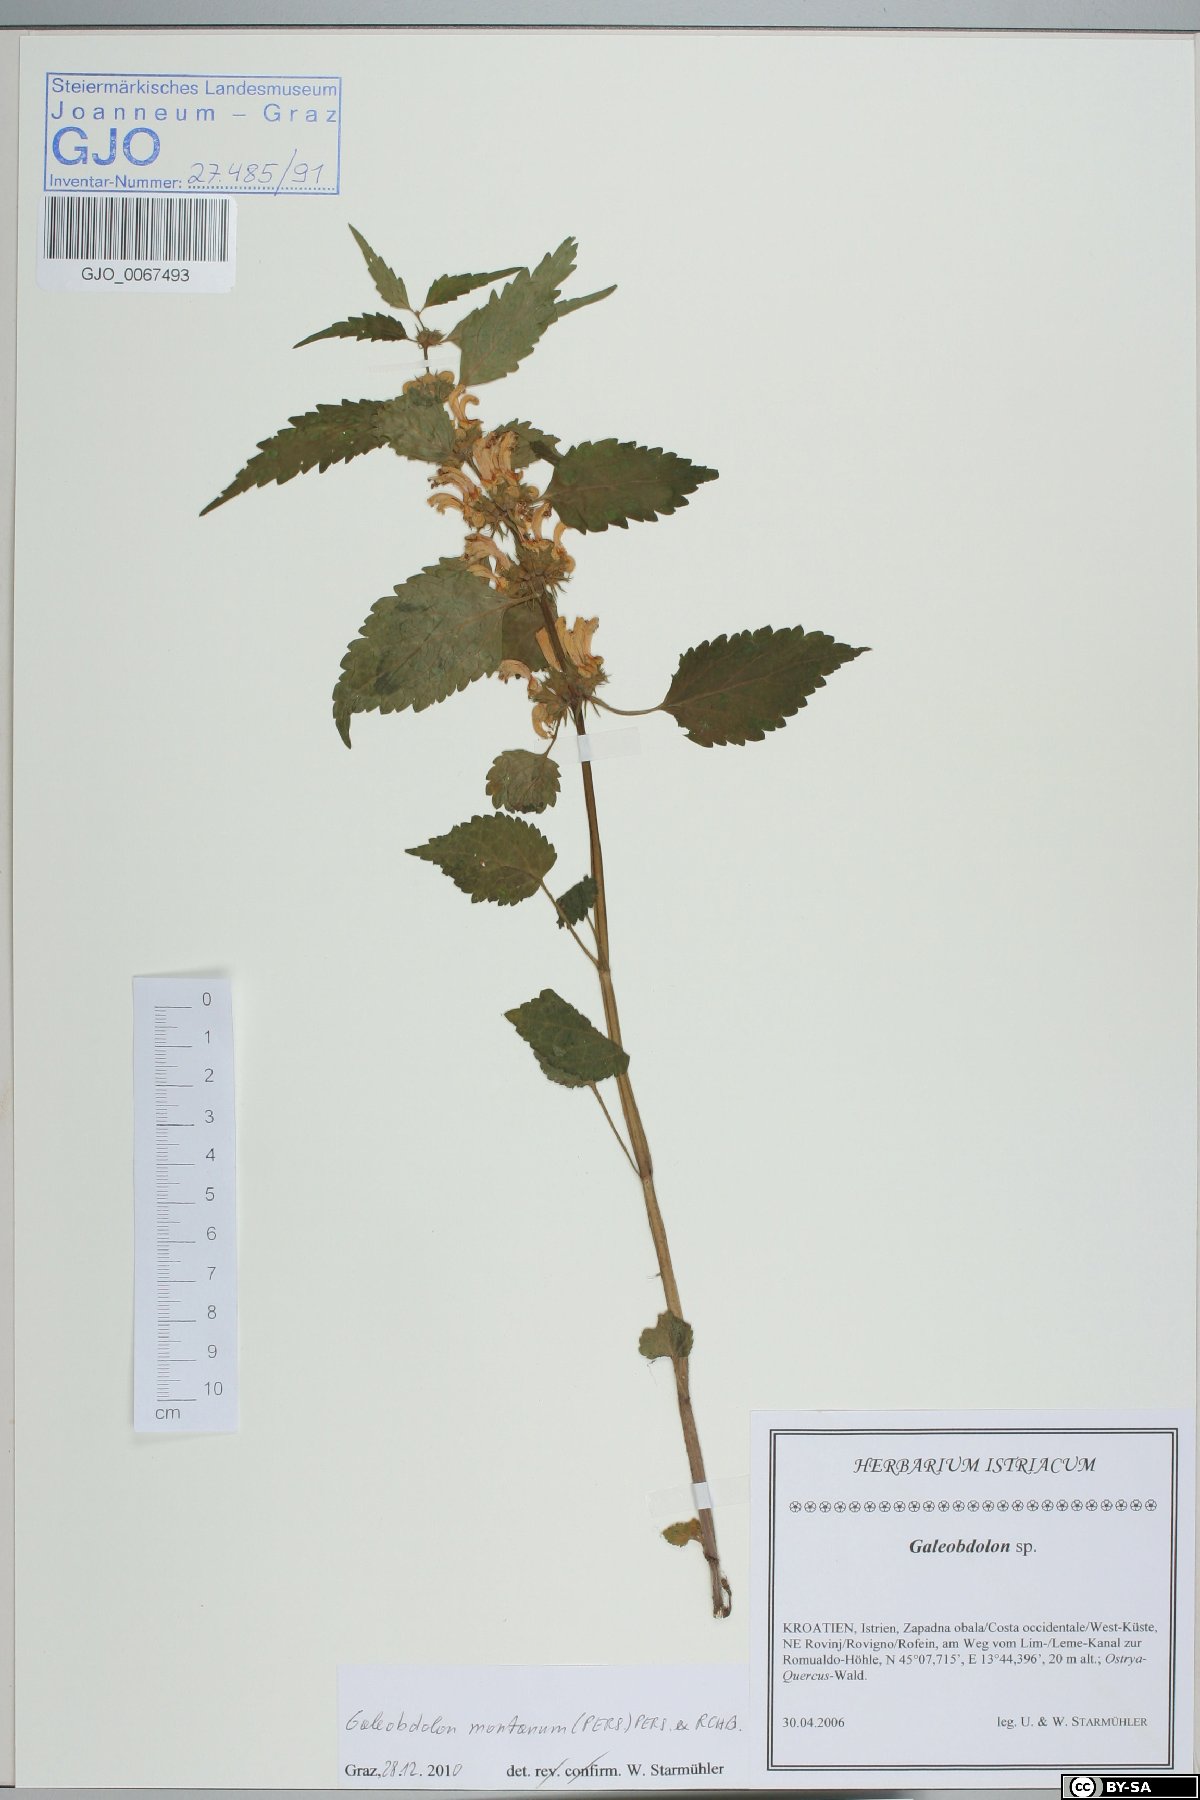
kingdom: Plantae
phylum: Tracheophyta
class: Magnoliopsida
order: Lamiales
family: Lamiaceae
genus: Lamium
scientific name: Lamium galeobdolon
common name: Yellow archangel
